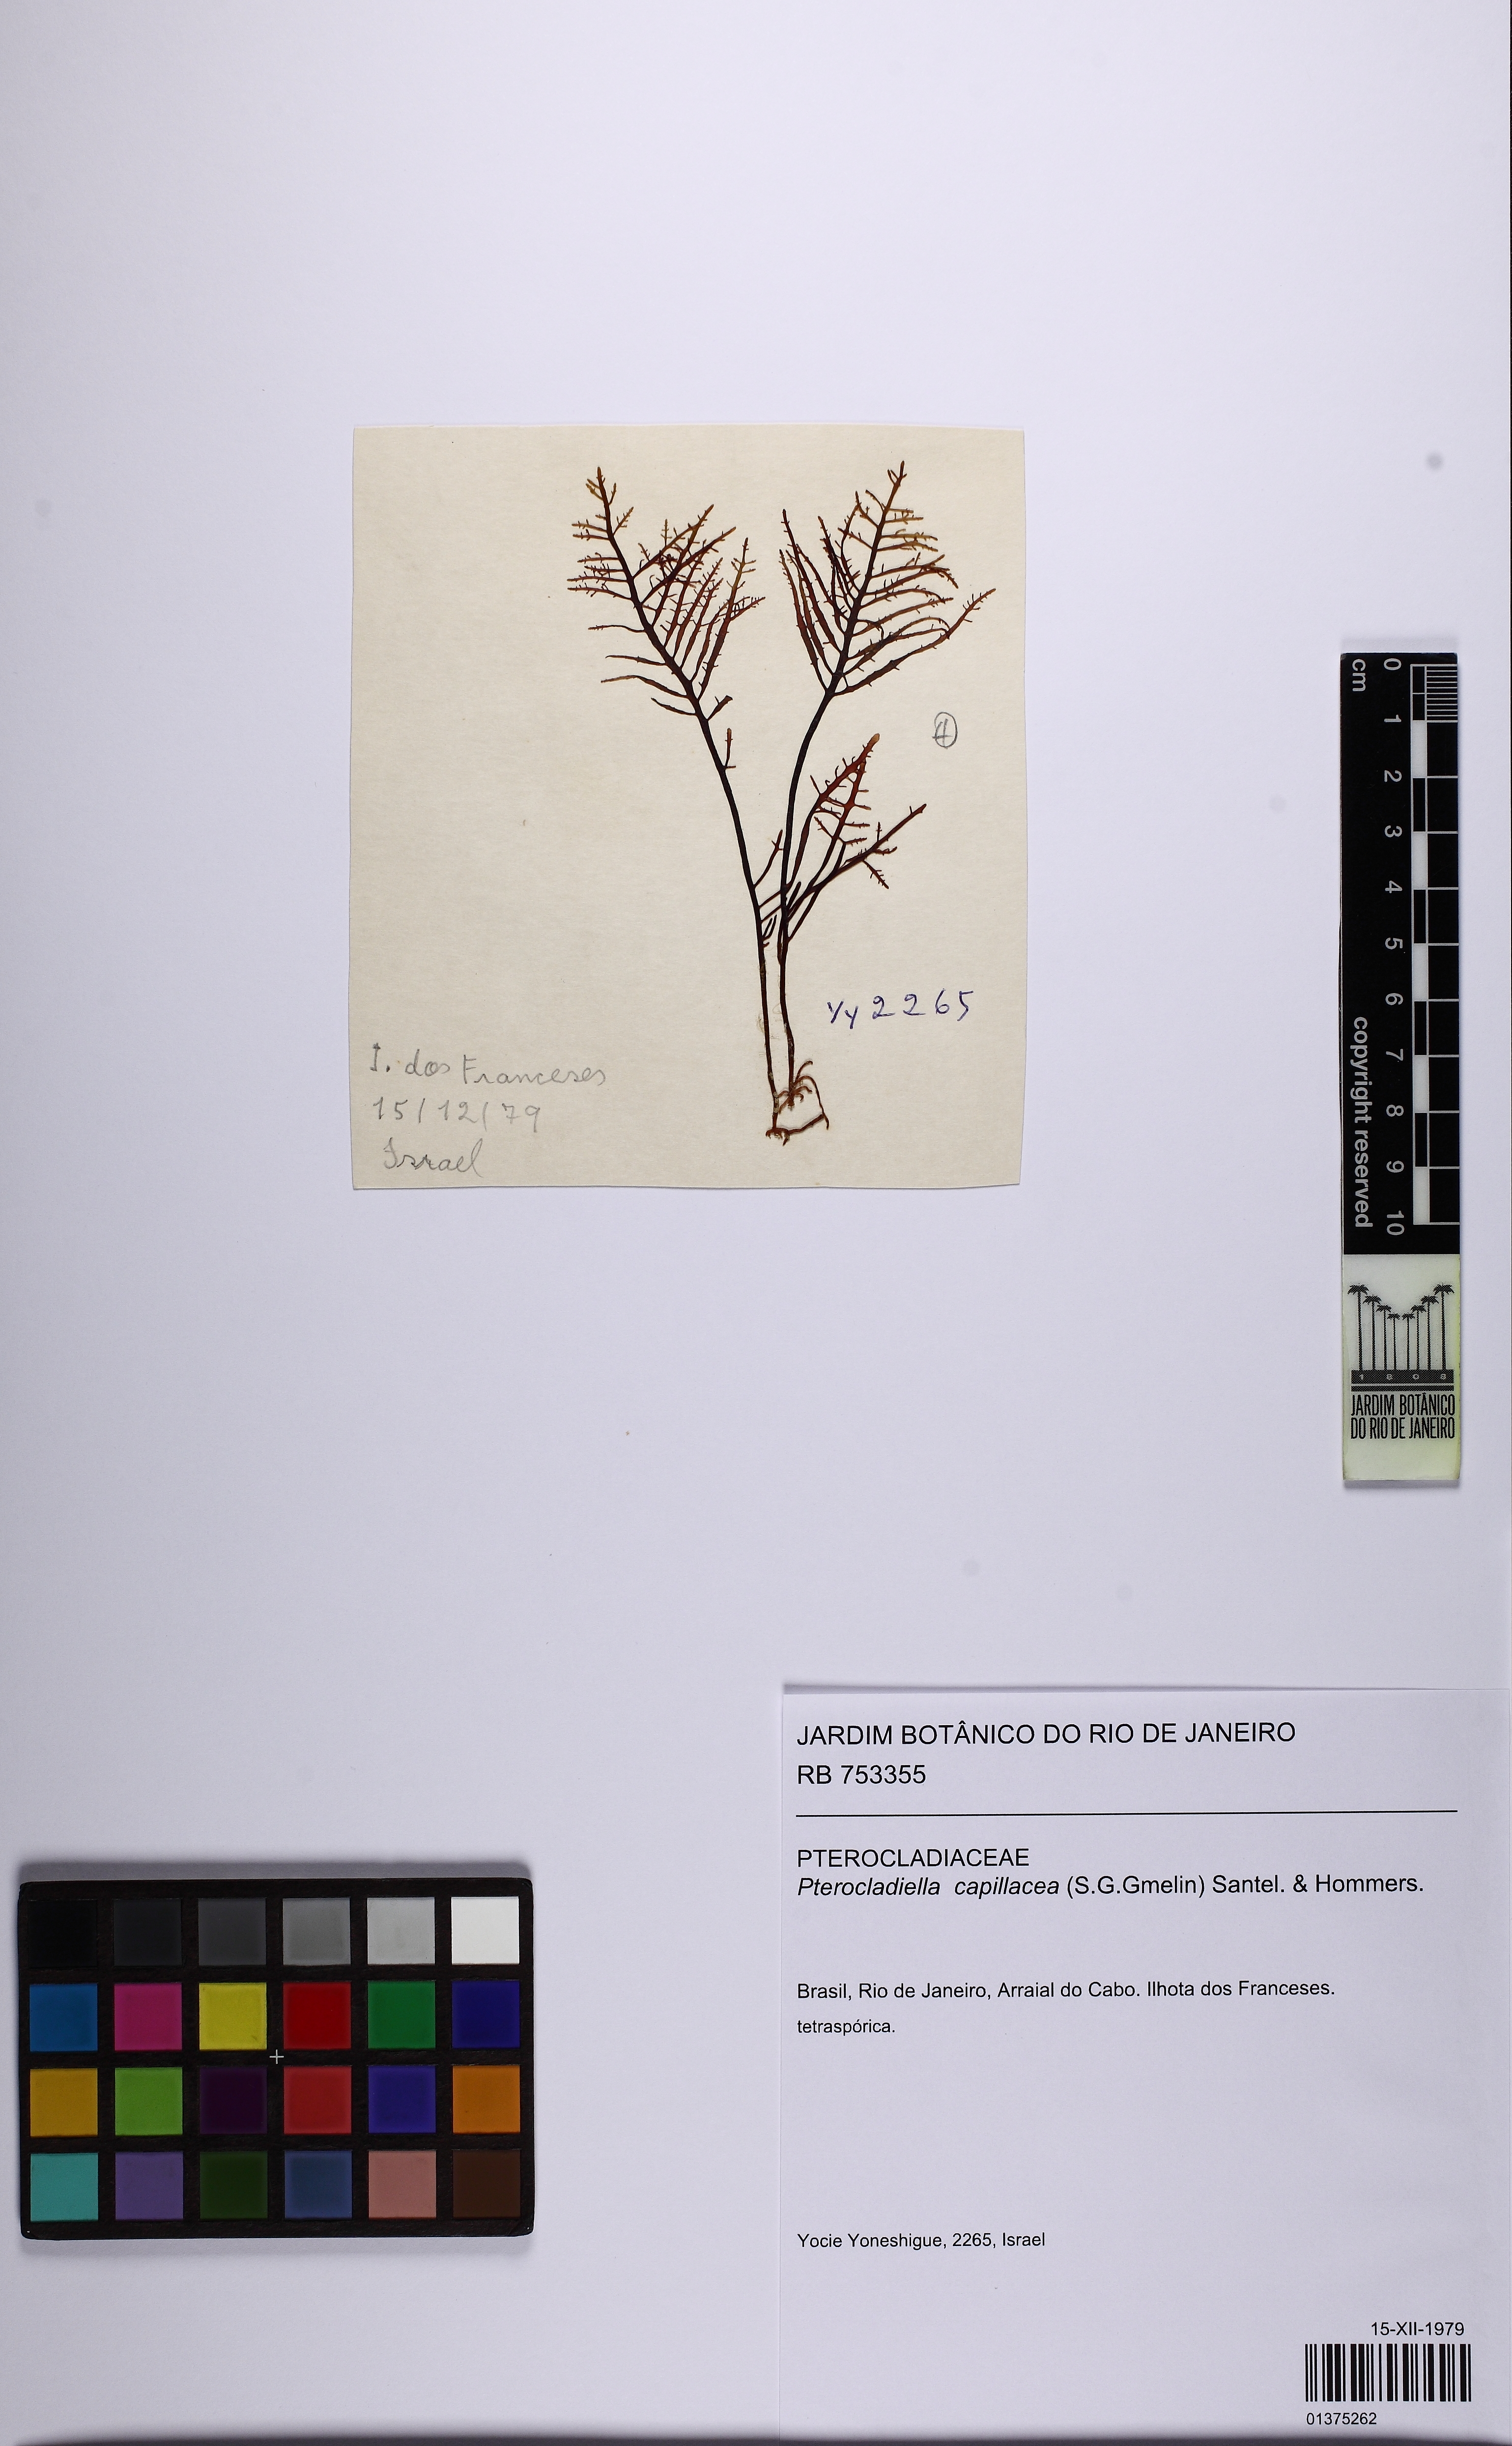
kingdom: Plantae
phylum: Rhodophyta
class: Florideophyceae
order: Gelidiales
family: Pterocladiaceae
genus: Pterocladiella
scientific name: Pterocladiella capillacea
